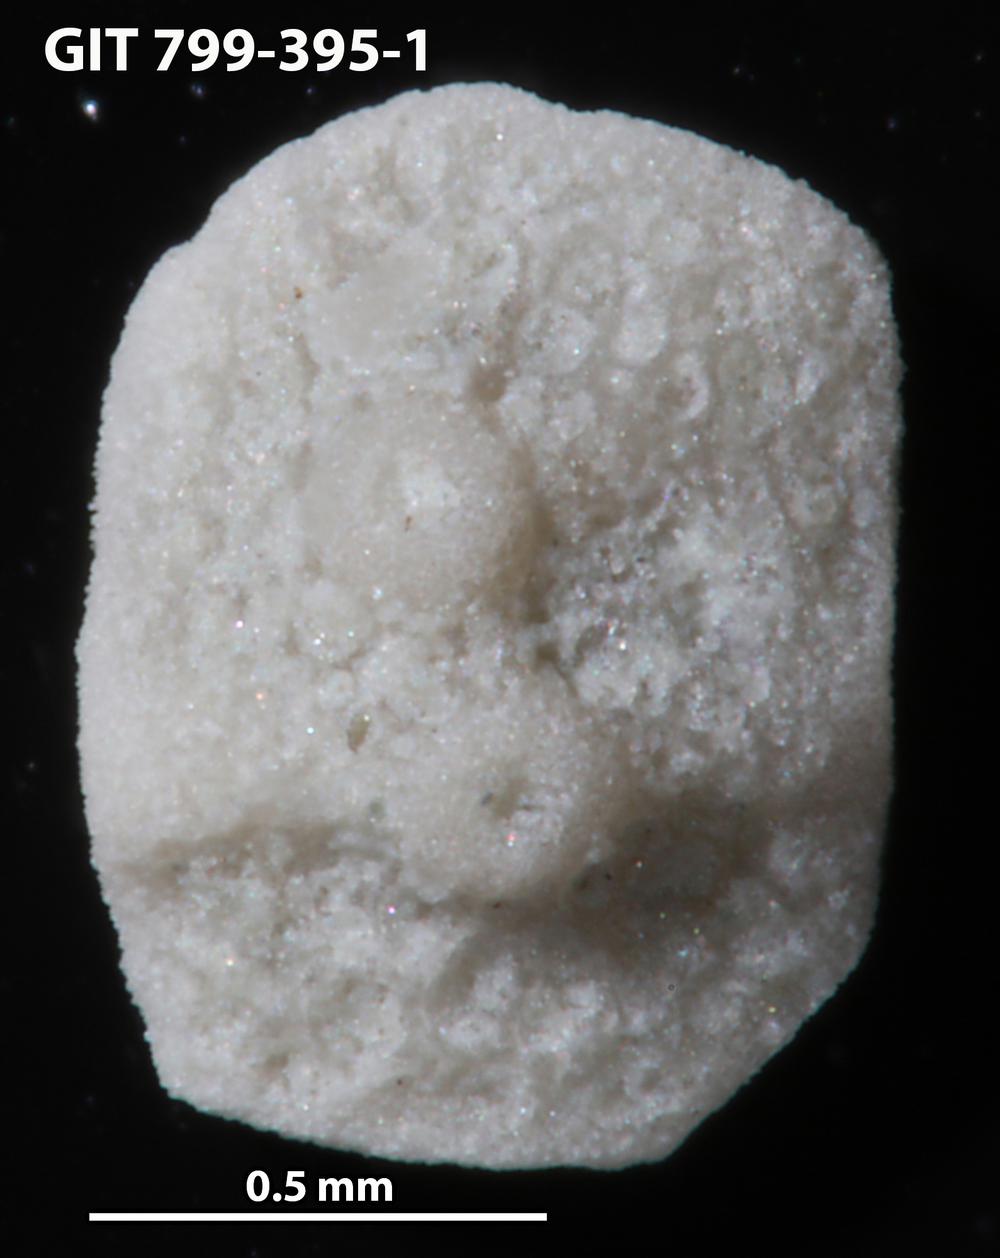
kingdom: Animalia
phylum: Echinodermata
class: Echinoidea
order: Bothriocidaroida
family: Bothriocidaridae
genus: Bothriocidaris
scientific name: Bothriocidaris
